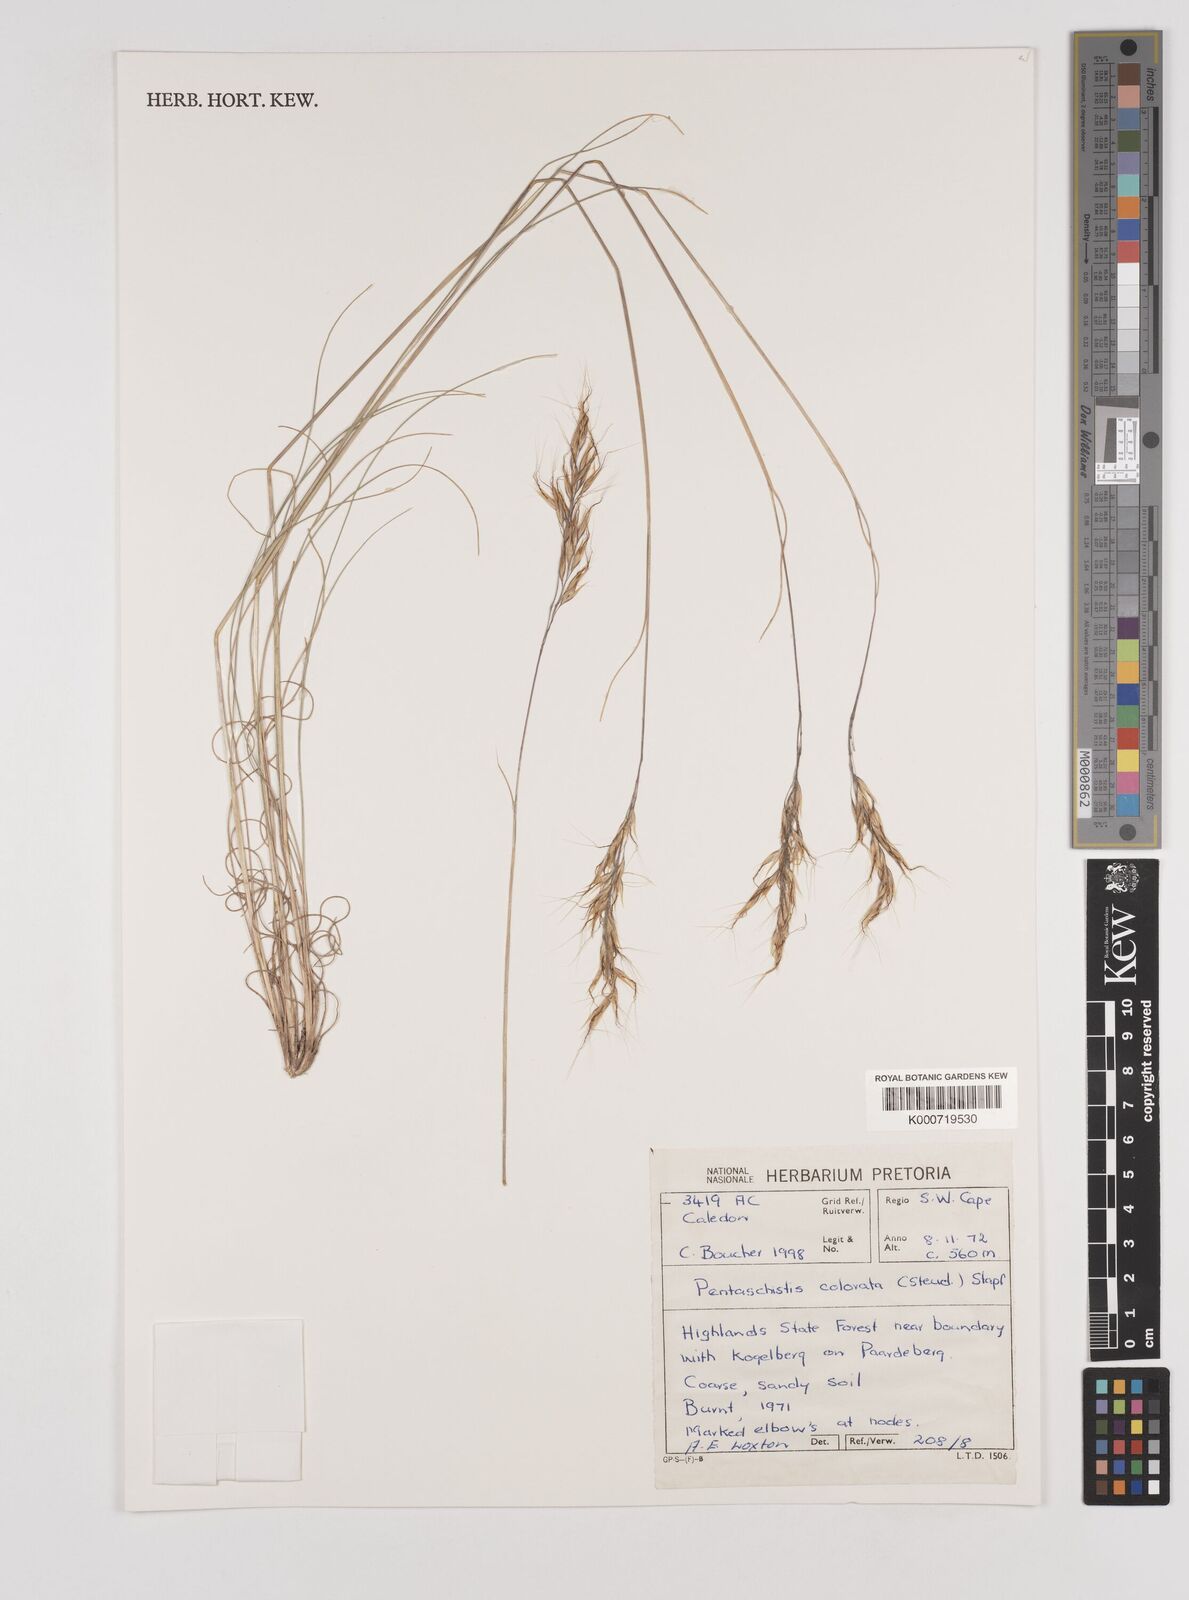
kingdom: Plantae
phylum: Tracheophyta
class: Liliopsida
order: Poales
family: Poaceae
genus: Pentameris
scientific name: Pentameris colorata
